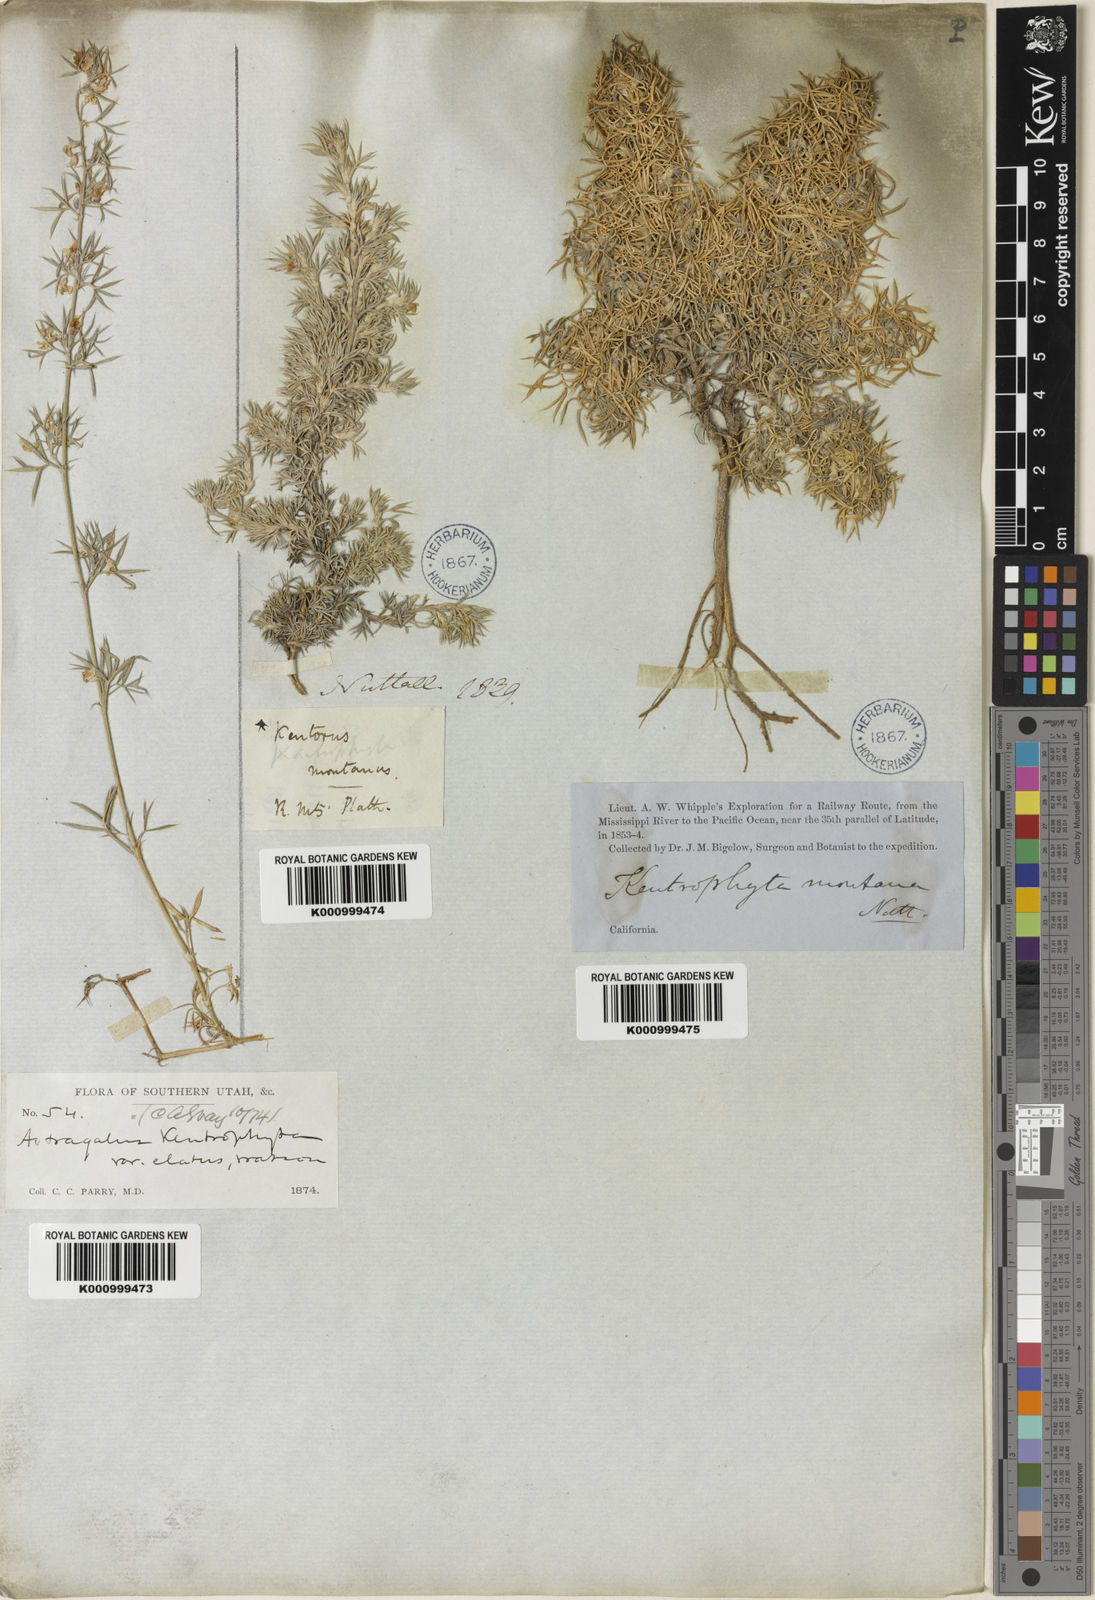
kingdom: Plantae
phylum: Tracheophyta
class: Magnoliopsida
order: Fabales
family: Fabaceae
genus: Astragalus
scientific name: Astragalus kentrophyta
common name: Prickly milk-vetch
